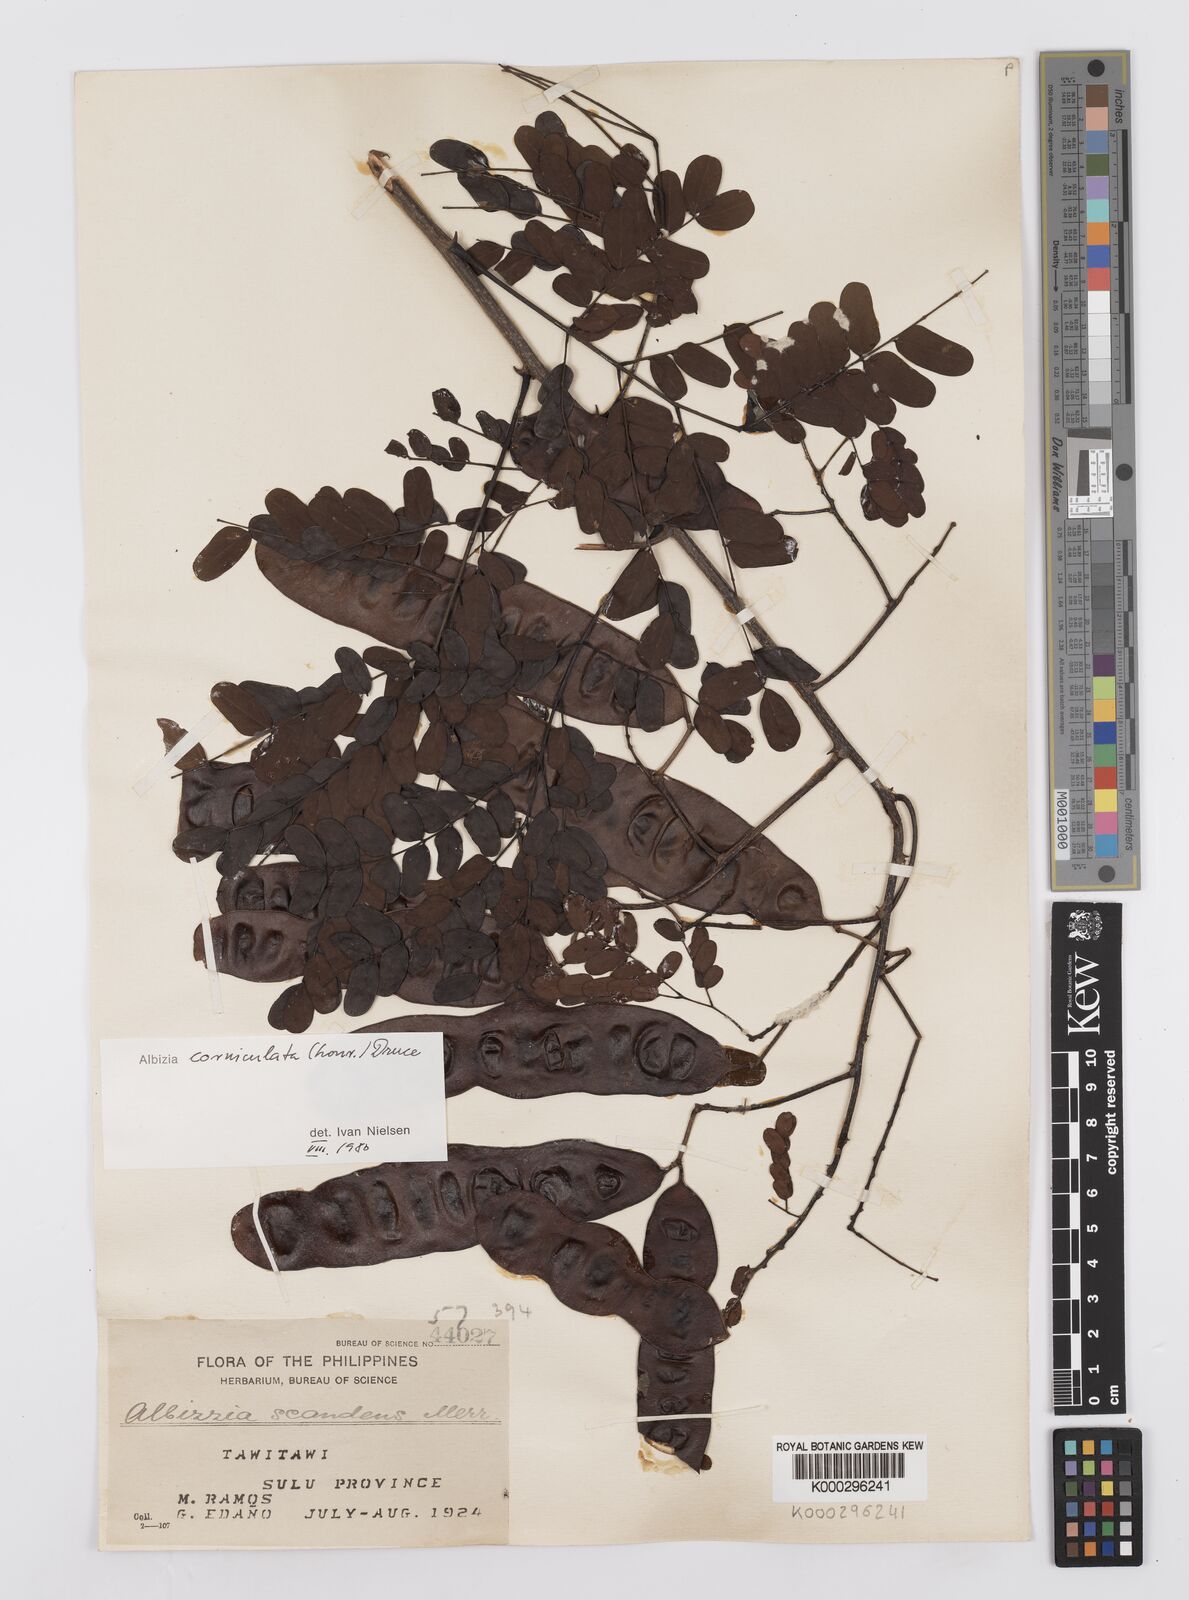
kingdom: Plantae
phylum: Tracheophyta
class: Magnoliopsida
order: Fabales
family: Fabaceae
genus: Albizia
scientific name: Albizia corniculata
